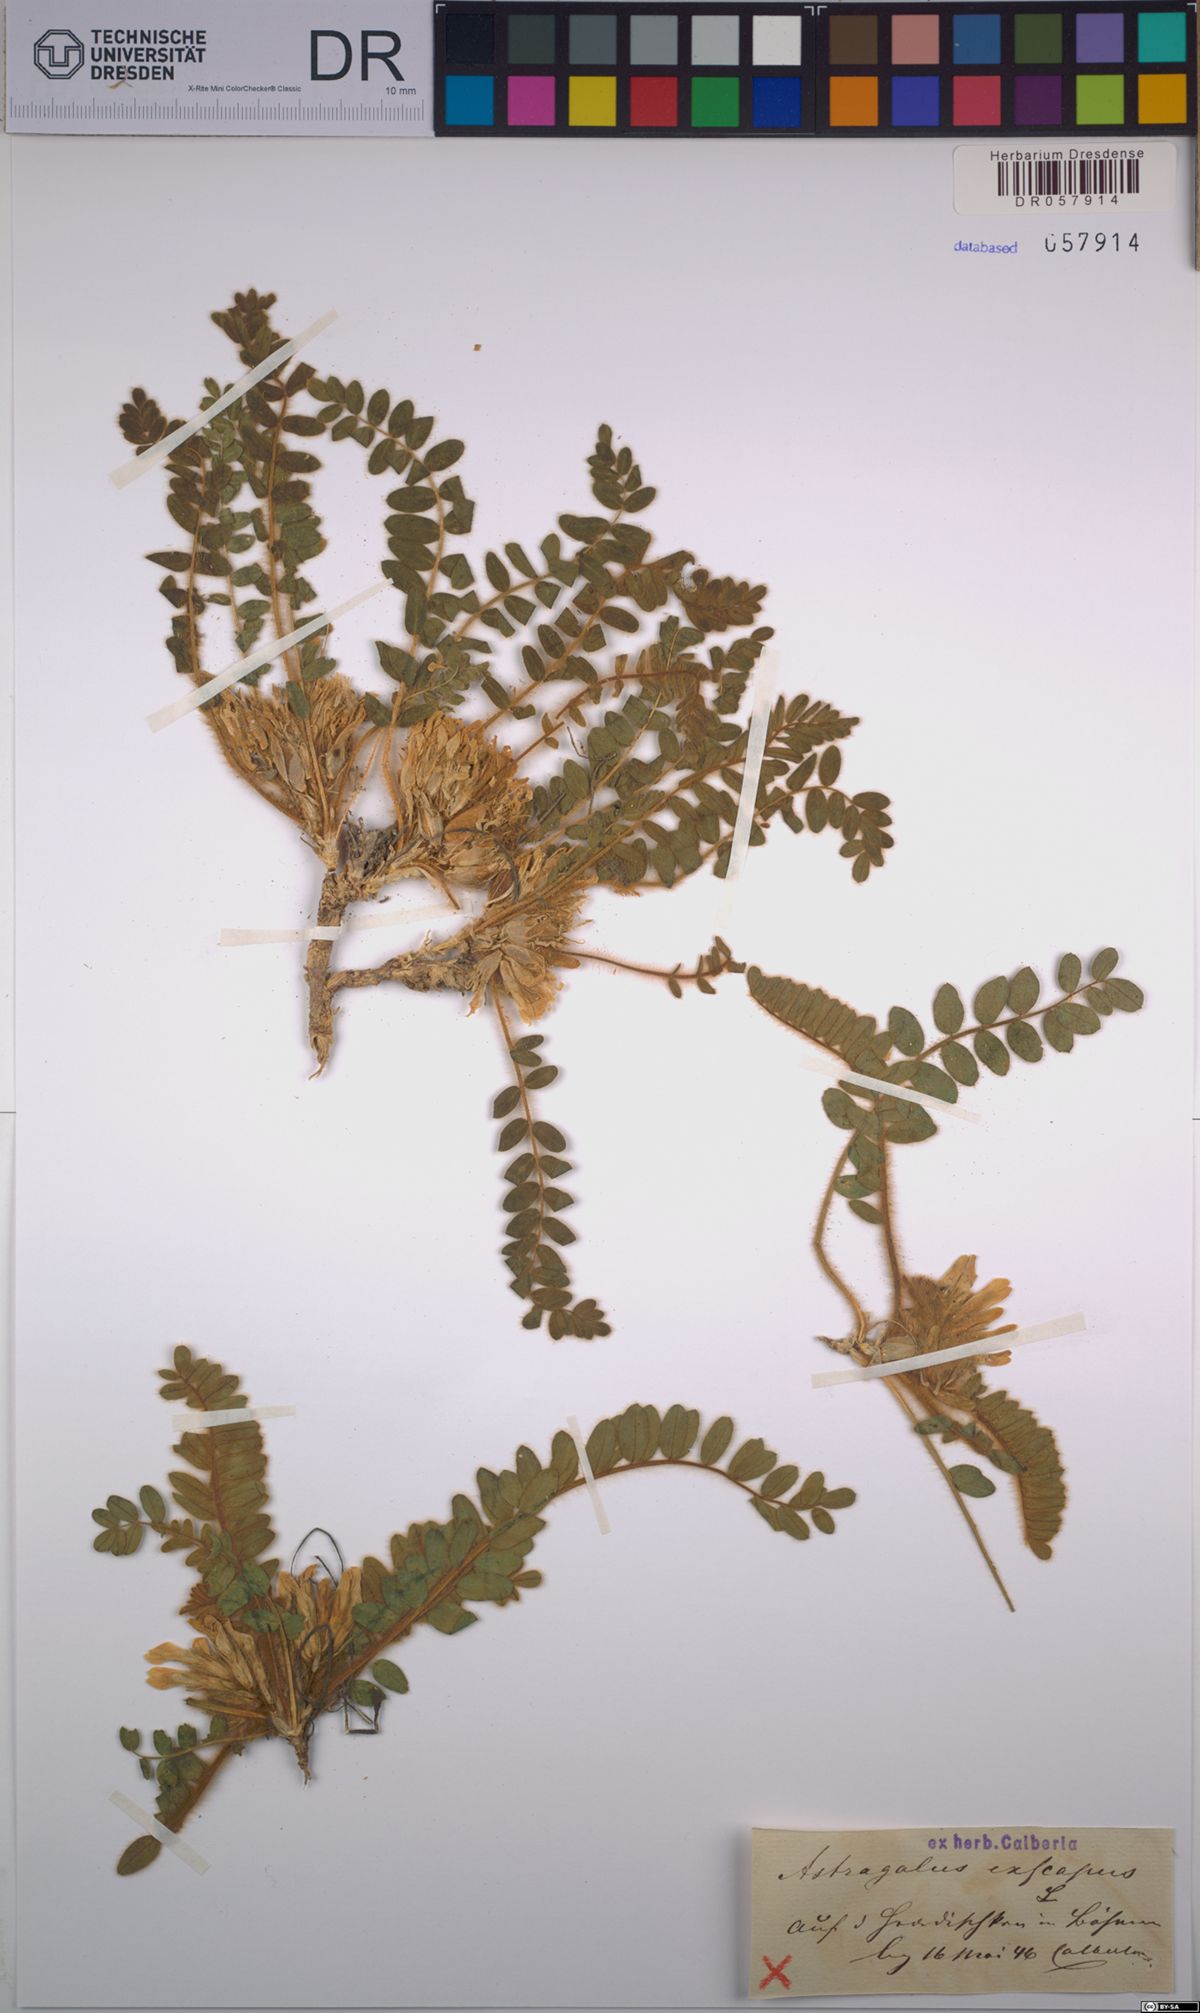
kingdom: Plantae
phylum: Tracheophyta
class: Magnoliopsida
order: Fabales
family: Fabaceae
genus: Astragalus
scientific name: Astragalus exscapus
